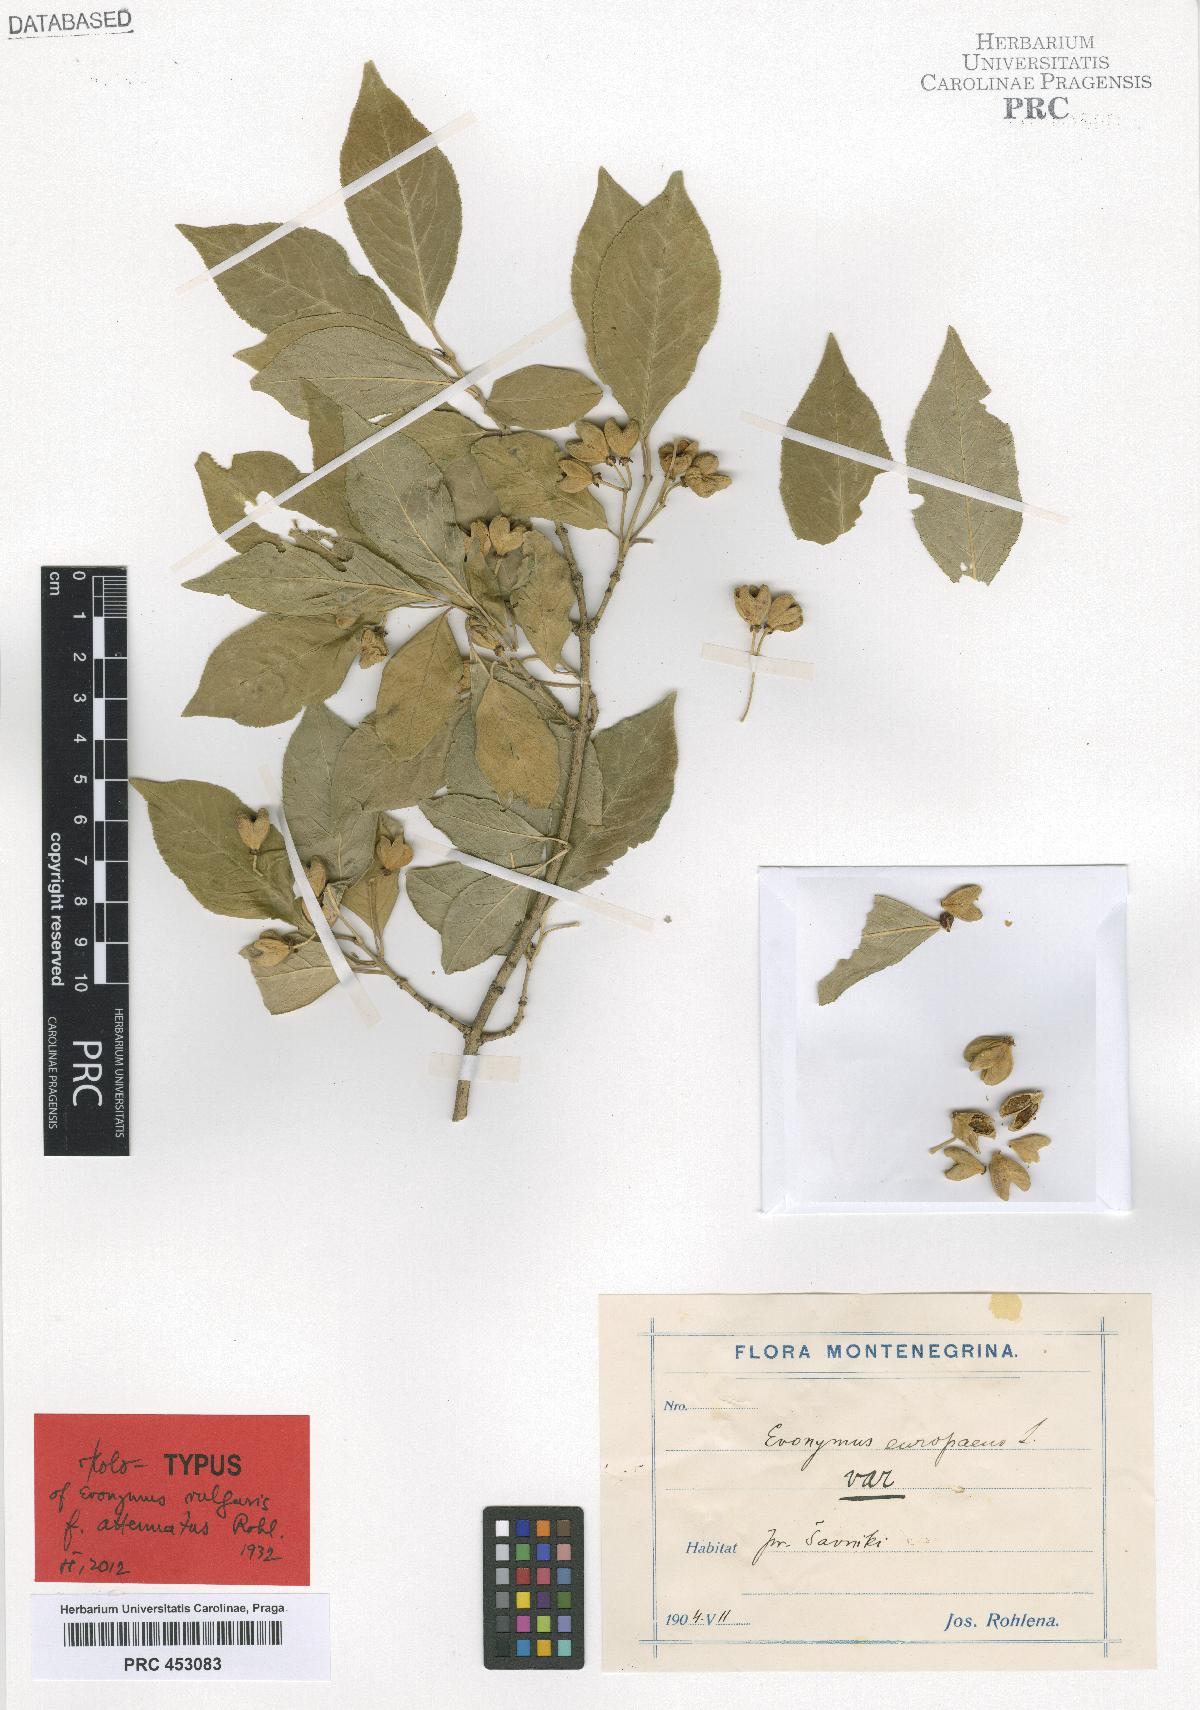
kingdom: Plantae
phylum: Tracheophyta
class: Magnoliopsida
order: Celastrales
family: Celastraceae
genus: Euonymus
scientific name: Euonymus europaeus
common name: Spindle
